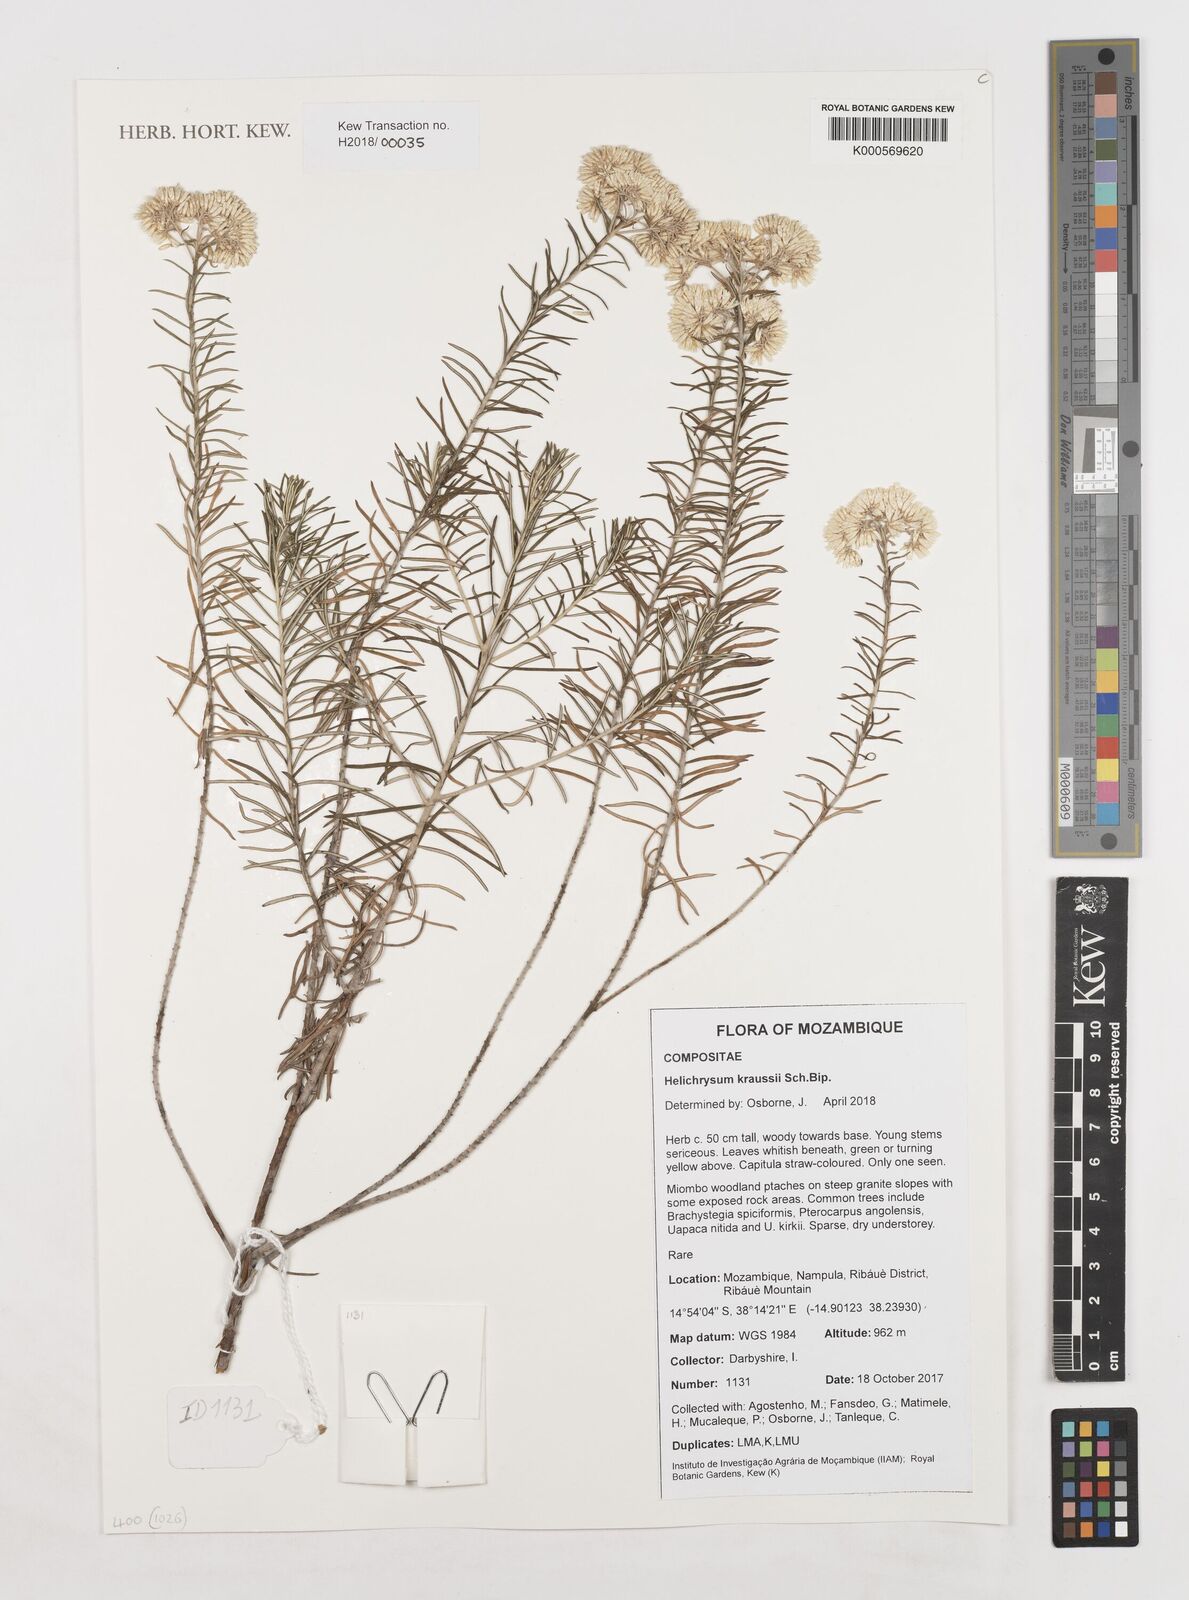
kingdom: Plantae
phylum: Tracheophyta
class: Magnoliopsida
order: Asterales
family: Asteraceae
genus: Helichrysum
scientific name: Helichrysum kraussii
